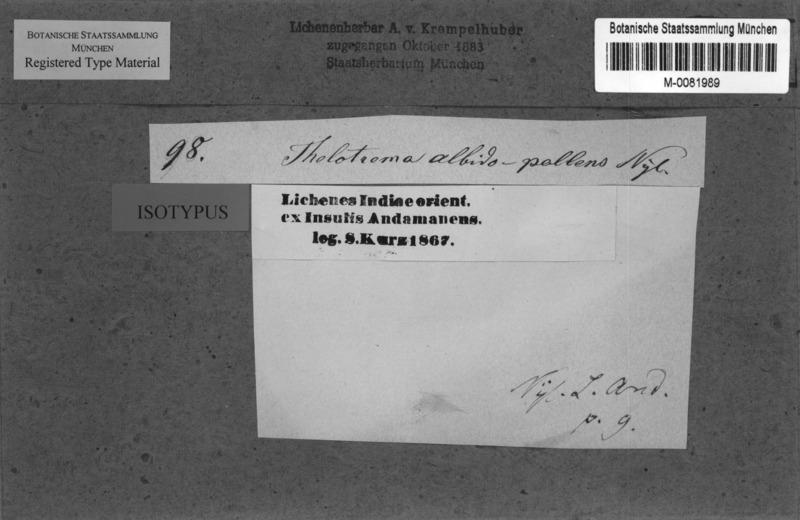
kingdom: Fungi
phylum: Ascomycota
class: Lecanoromycetes
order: Ostropales
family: Graphidaceae
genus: Thelotrema
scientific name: Thelotrema albidopallens
